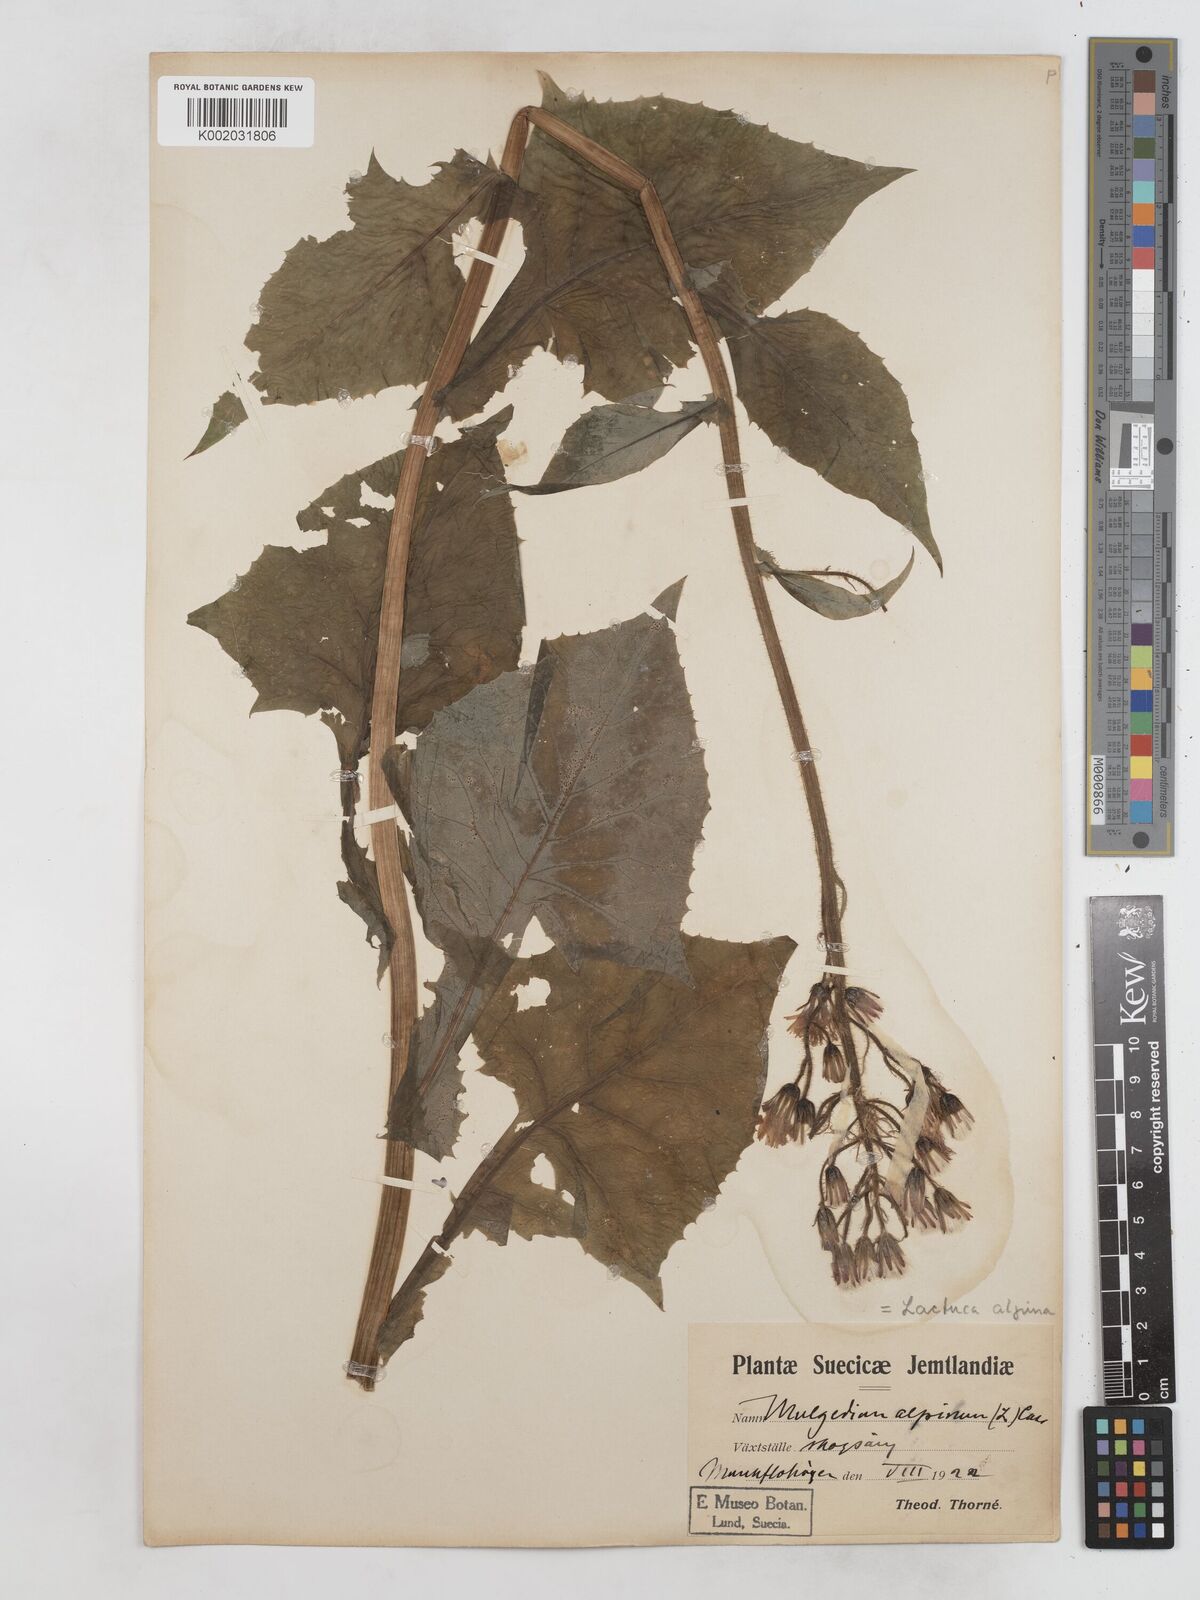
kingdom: Plantae
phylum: Tracheophyta
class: Magnoliopsida
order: Asterales
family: Asteraceae
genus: Cicerbita
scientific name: Cicerbita alpina
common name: Alpine blue-sow-thistle
